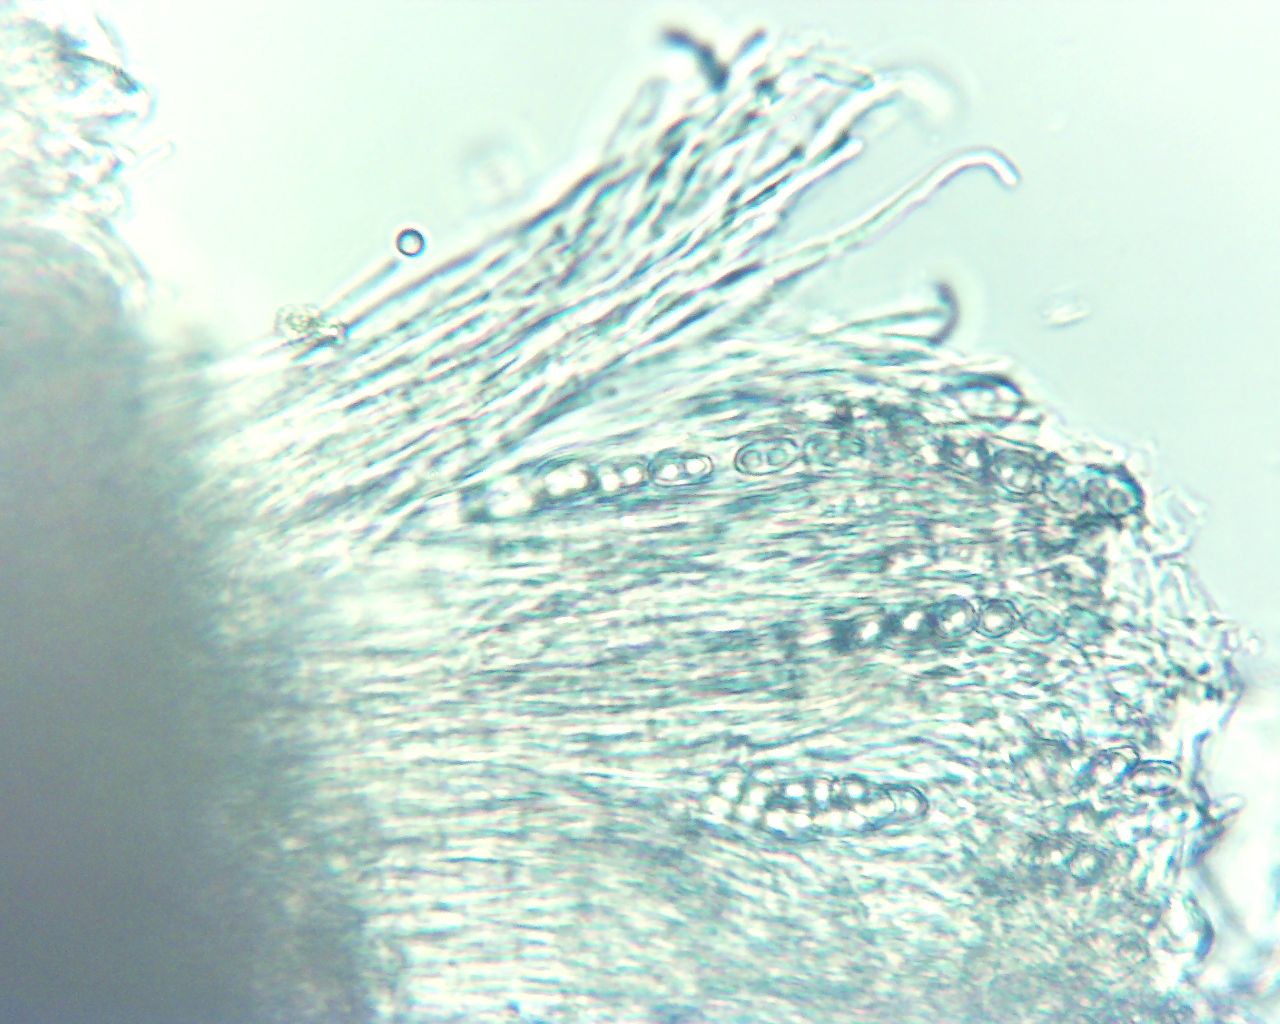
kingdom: Fungi
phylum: Ascomycota
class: Pezizomycetes
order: Pezizales
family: Otideaceae
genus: Otidea
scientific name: Otidea onotica
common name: æsel-ørebæger
